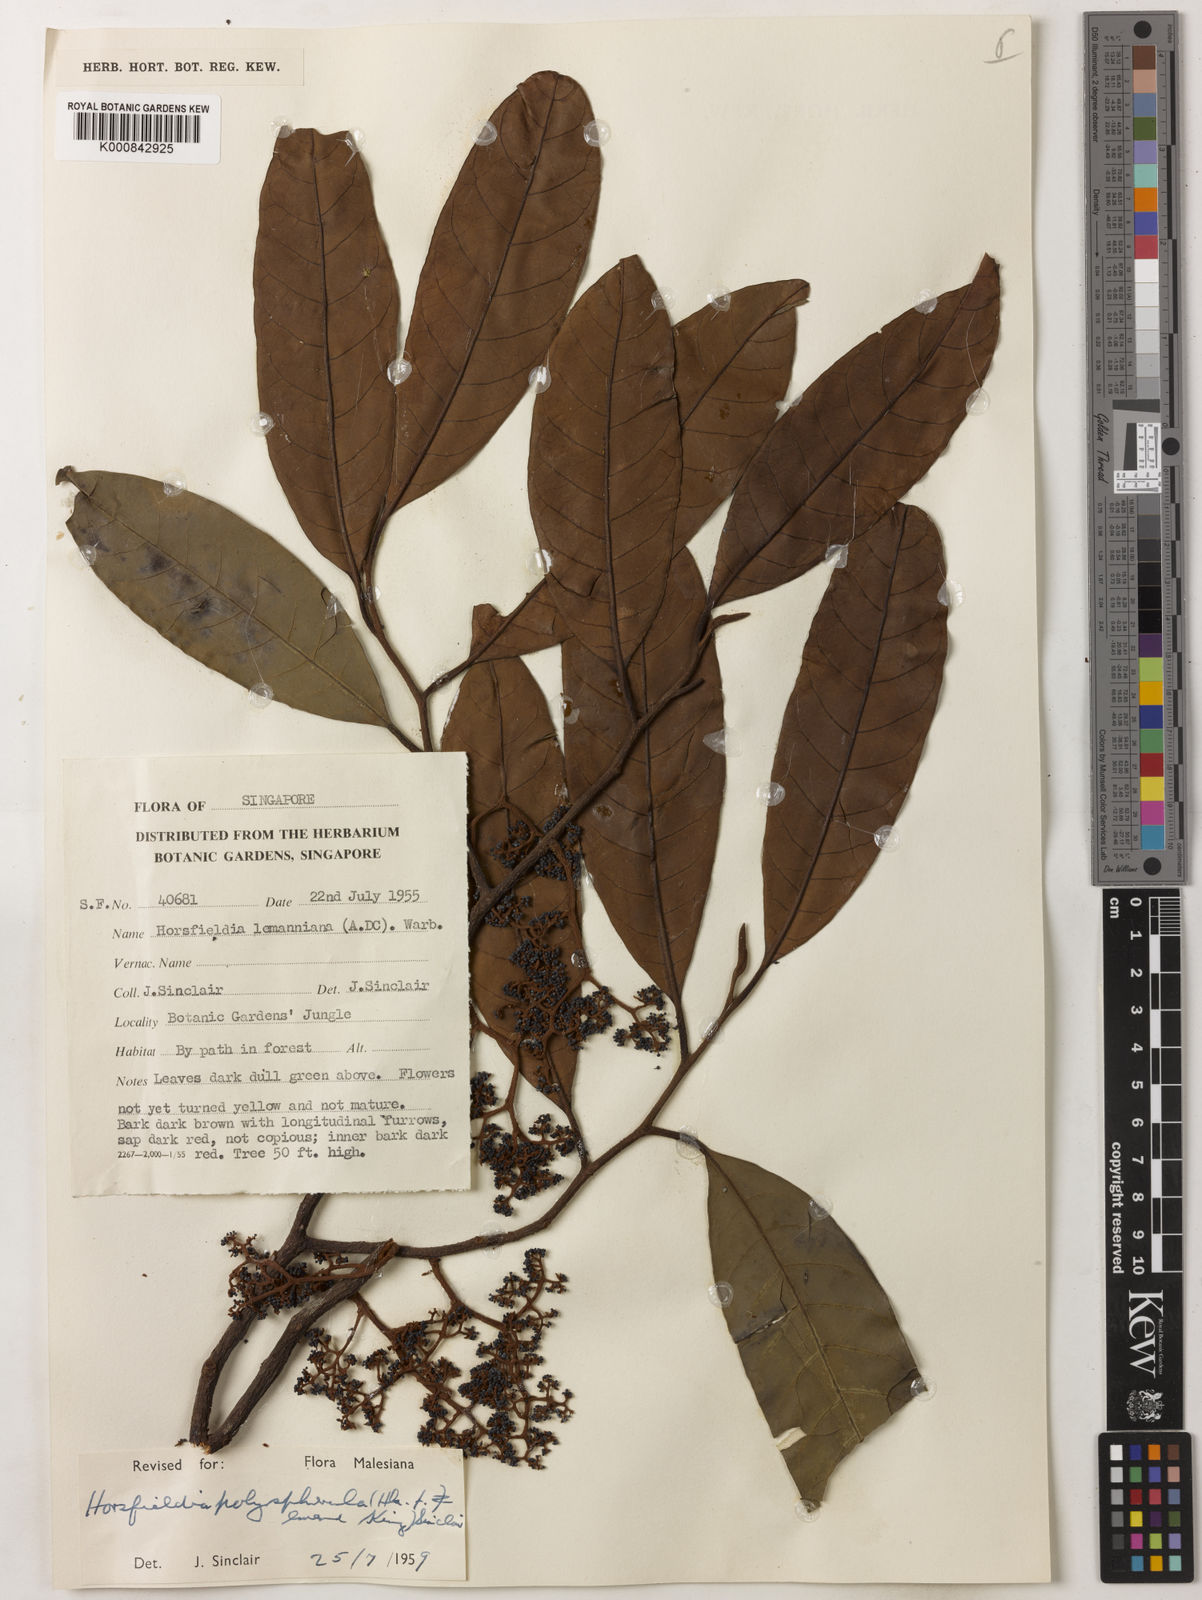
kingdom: Plantae
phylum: Tracheophyta
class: Magnoliopsida
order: Magnoliales
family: Myristicaceae
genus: Horsfieldia
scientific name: Horsfieldia polyspherula
